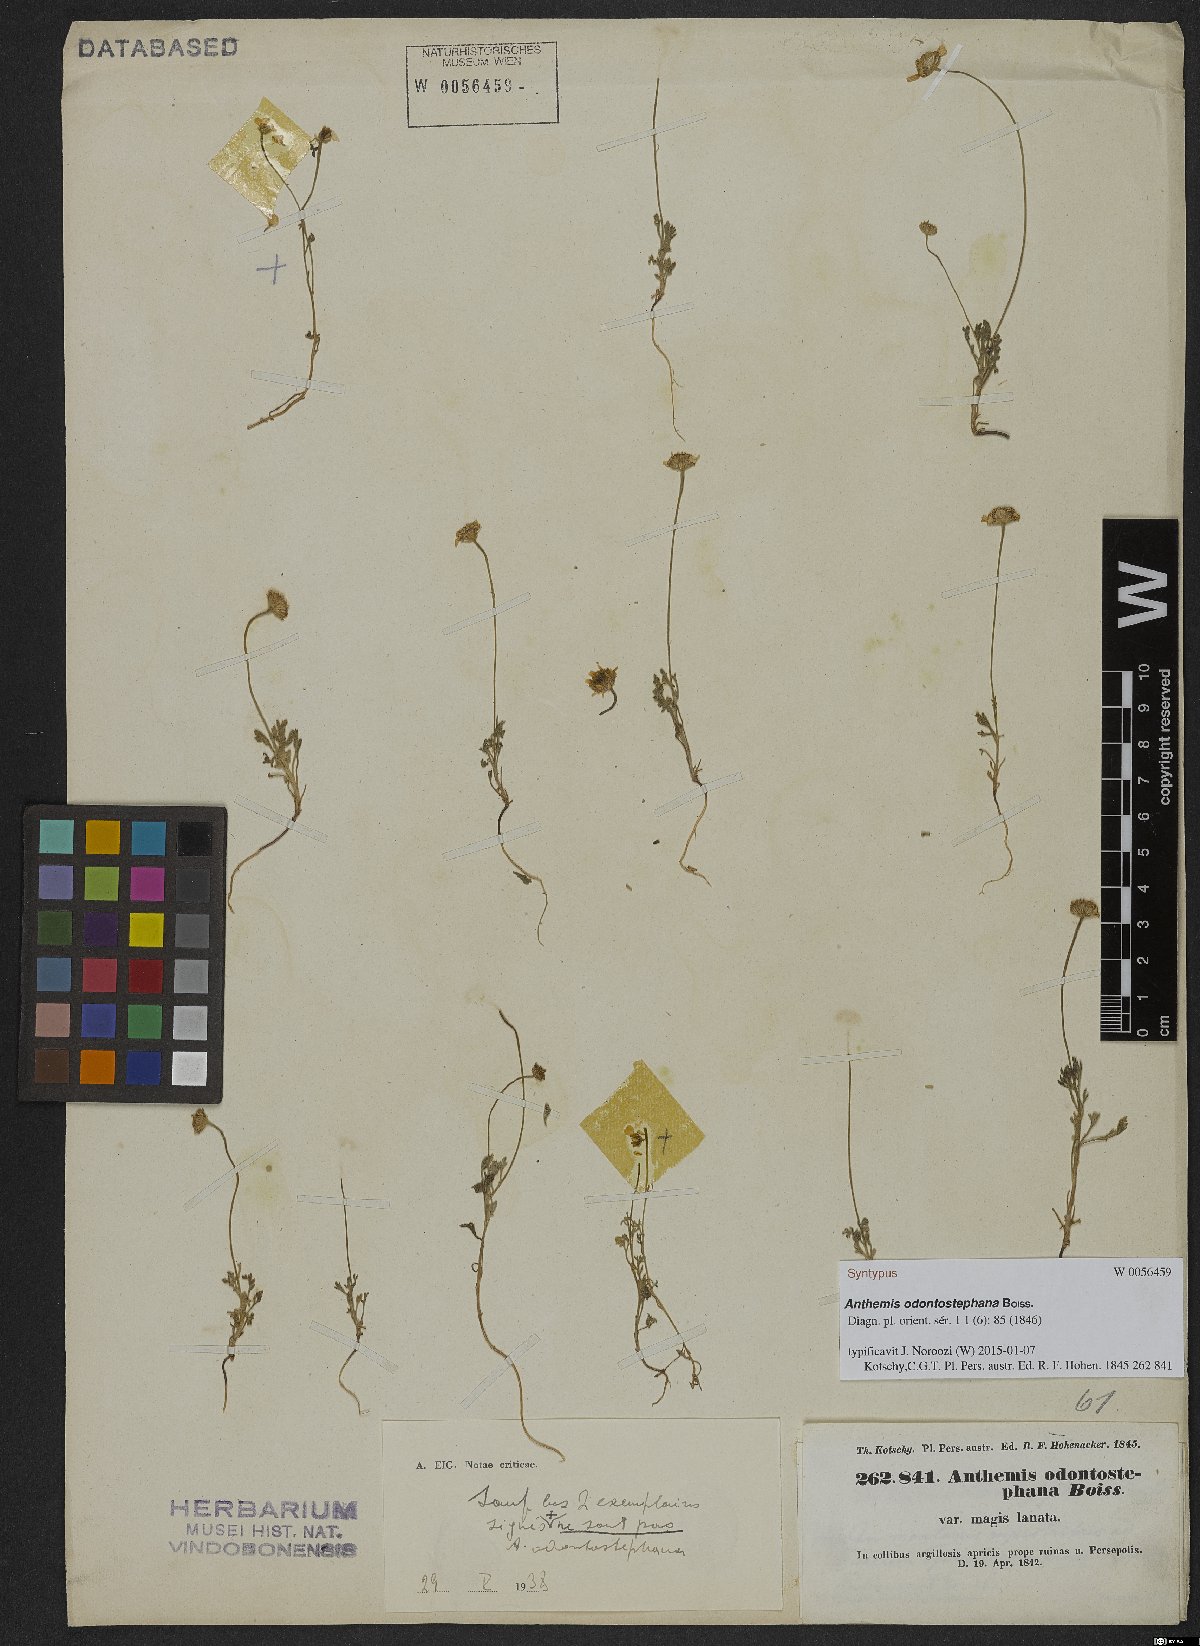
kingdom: Plantae
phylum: Tracheophyta
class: Magnoliopsida
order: Asterales
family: Asteraceae
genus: Anthemis
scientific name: Anthemis odontostephana
